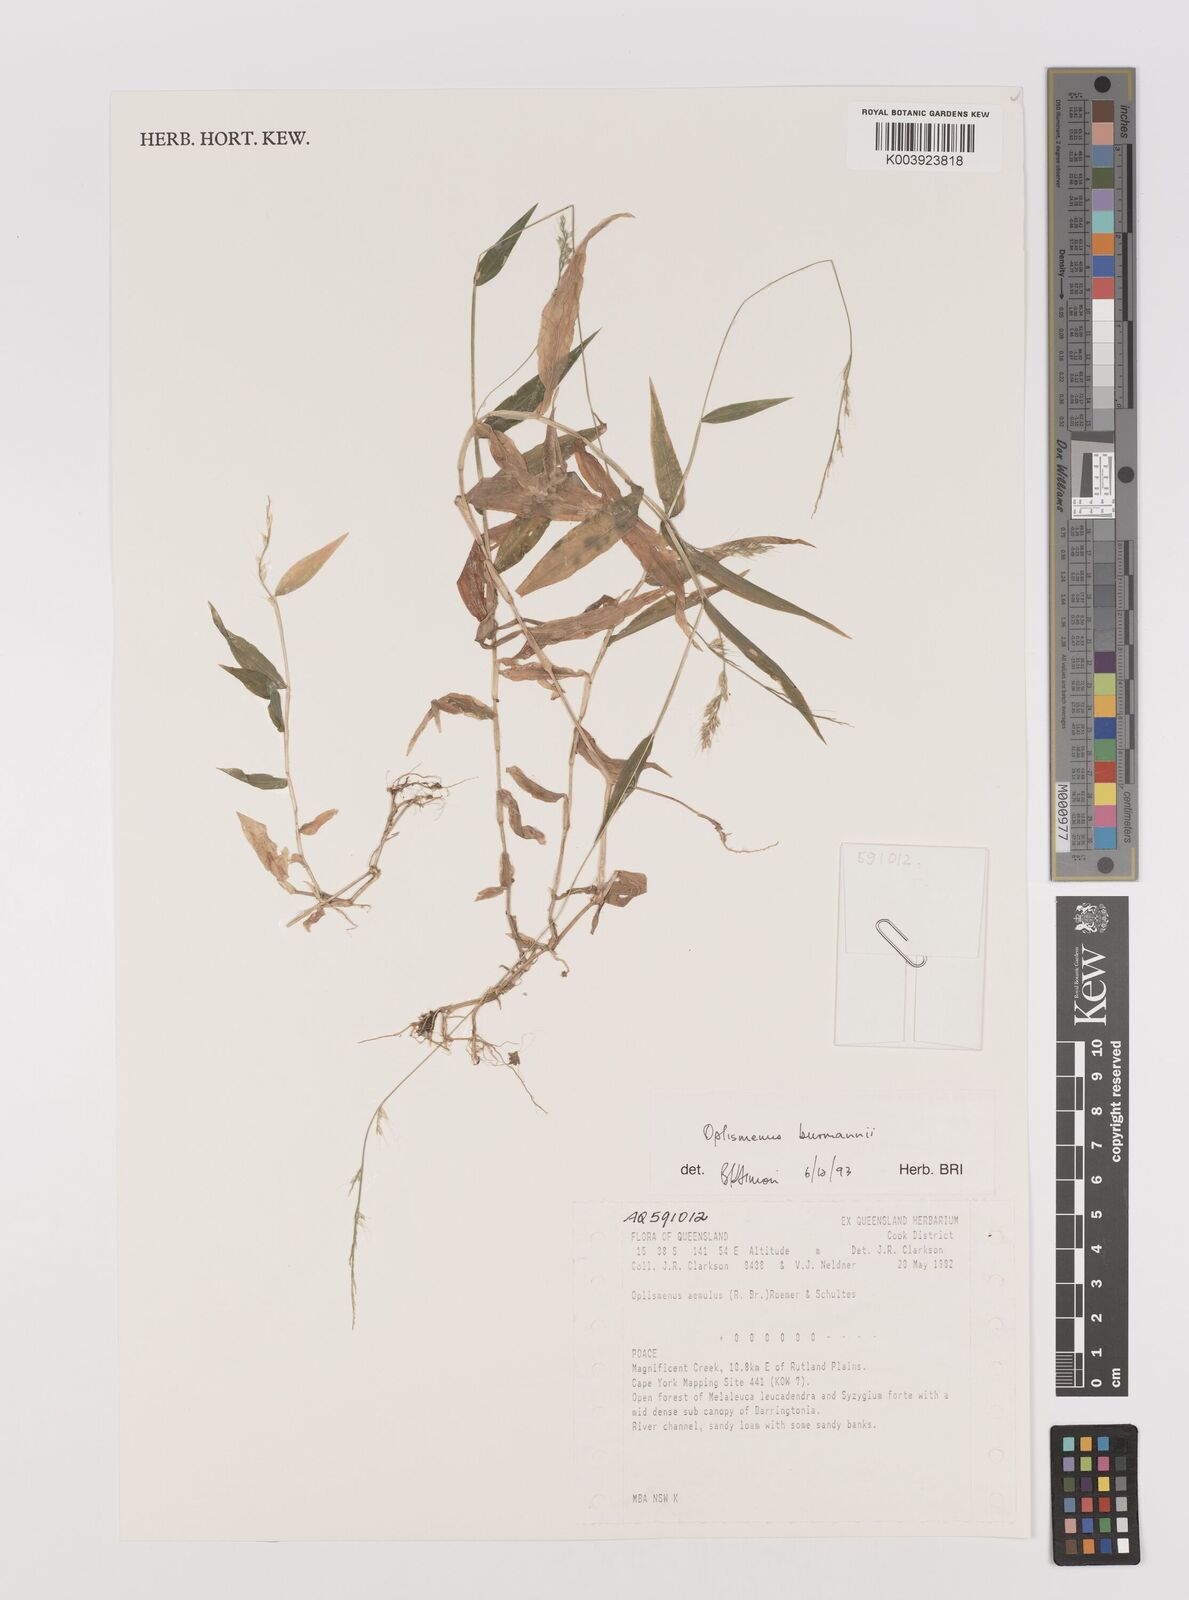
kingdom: Plantae
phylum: Tracheophyta
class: Liliopsida
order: Poales
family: Poaceae
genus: Oplismenus
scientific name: Oplismenus burmanni
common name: Burmann's basketgrass
